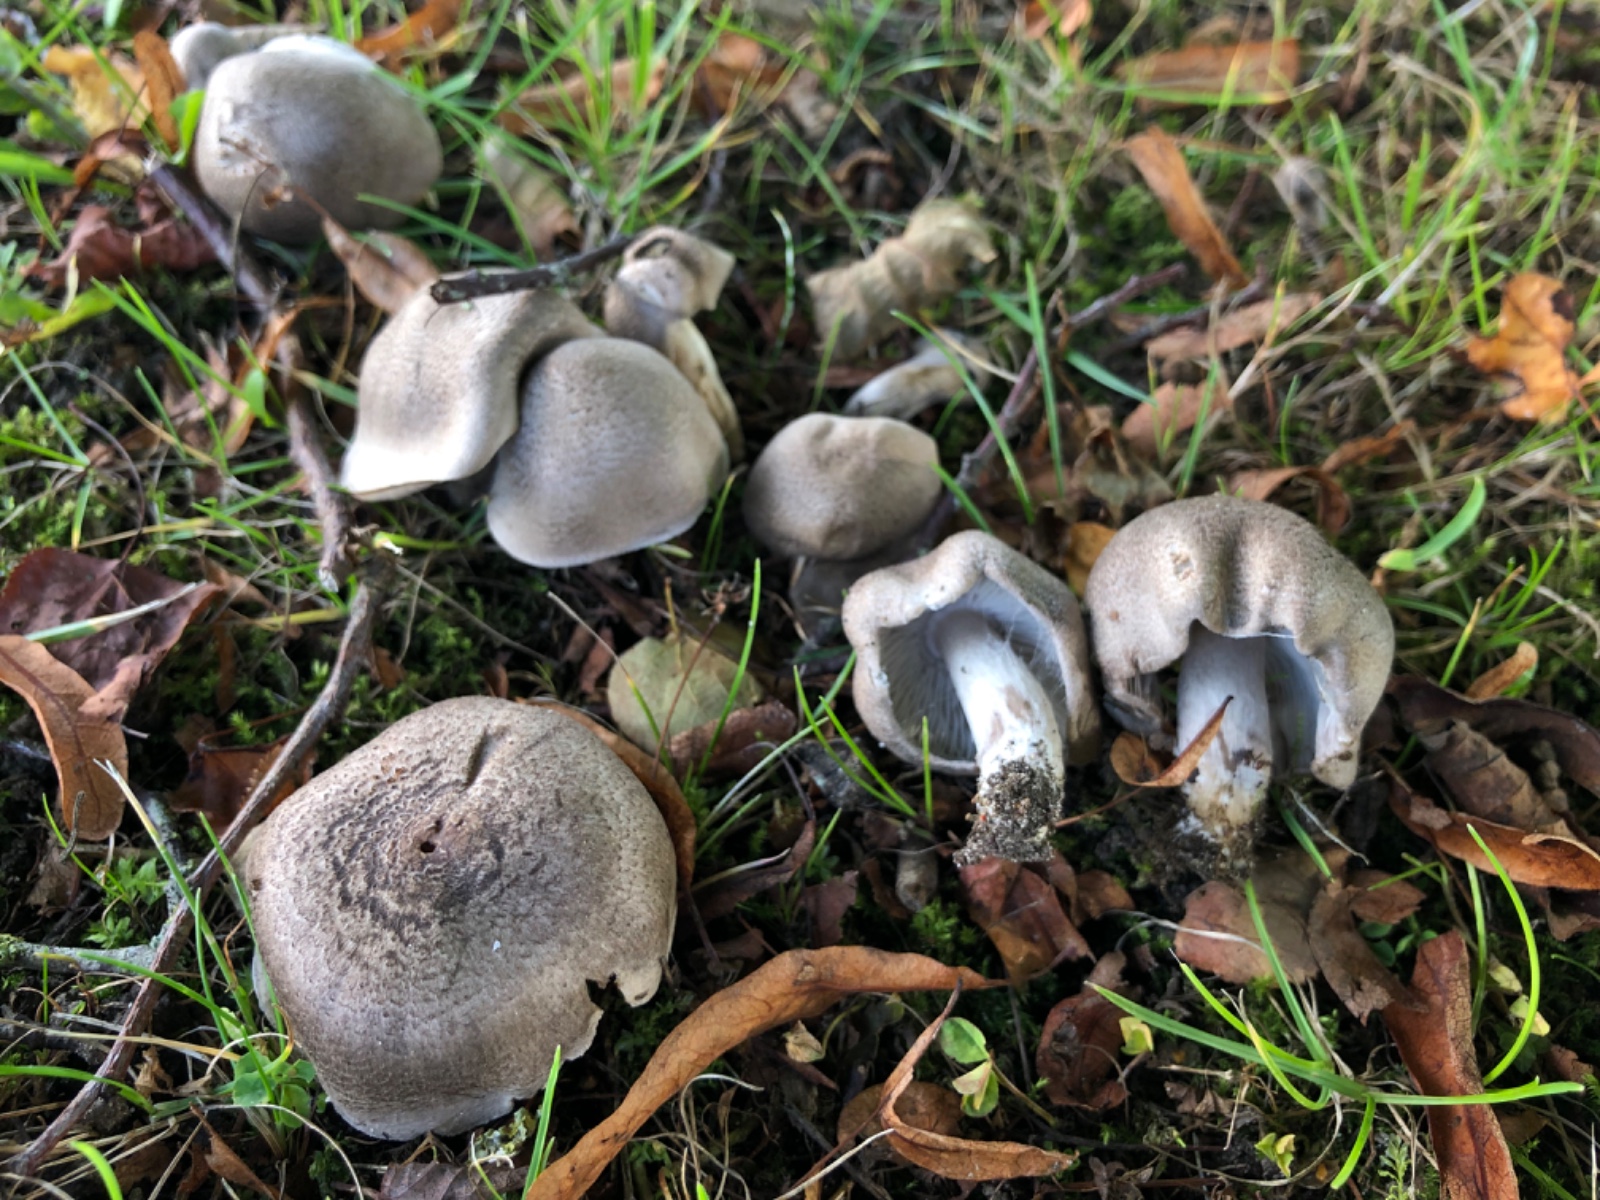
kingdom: Fungi
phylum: Basidiomycota
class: Agaricomycetes
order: Agaricales
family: Tricholomataceae
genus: Tricholoma
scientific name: Tricholoma argyraceum
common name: slør-ridderhat
